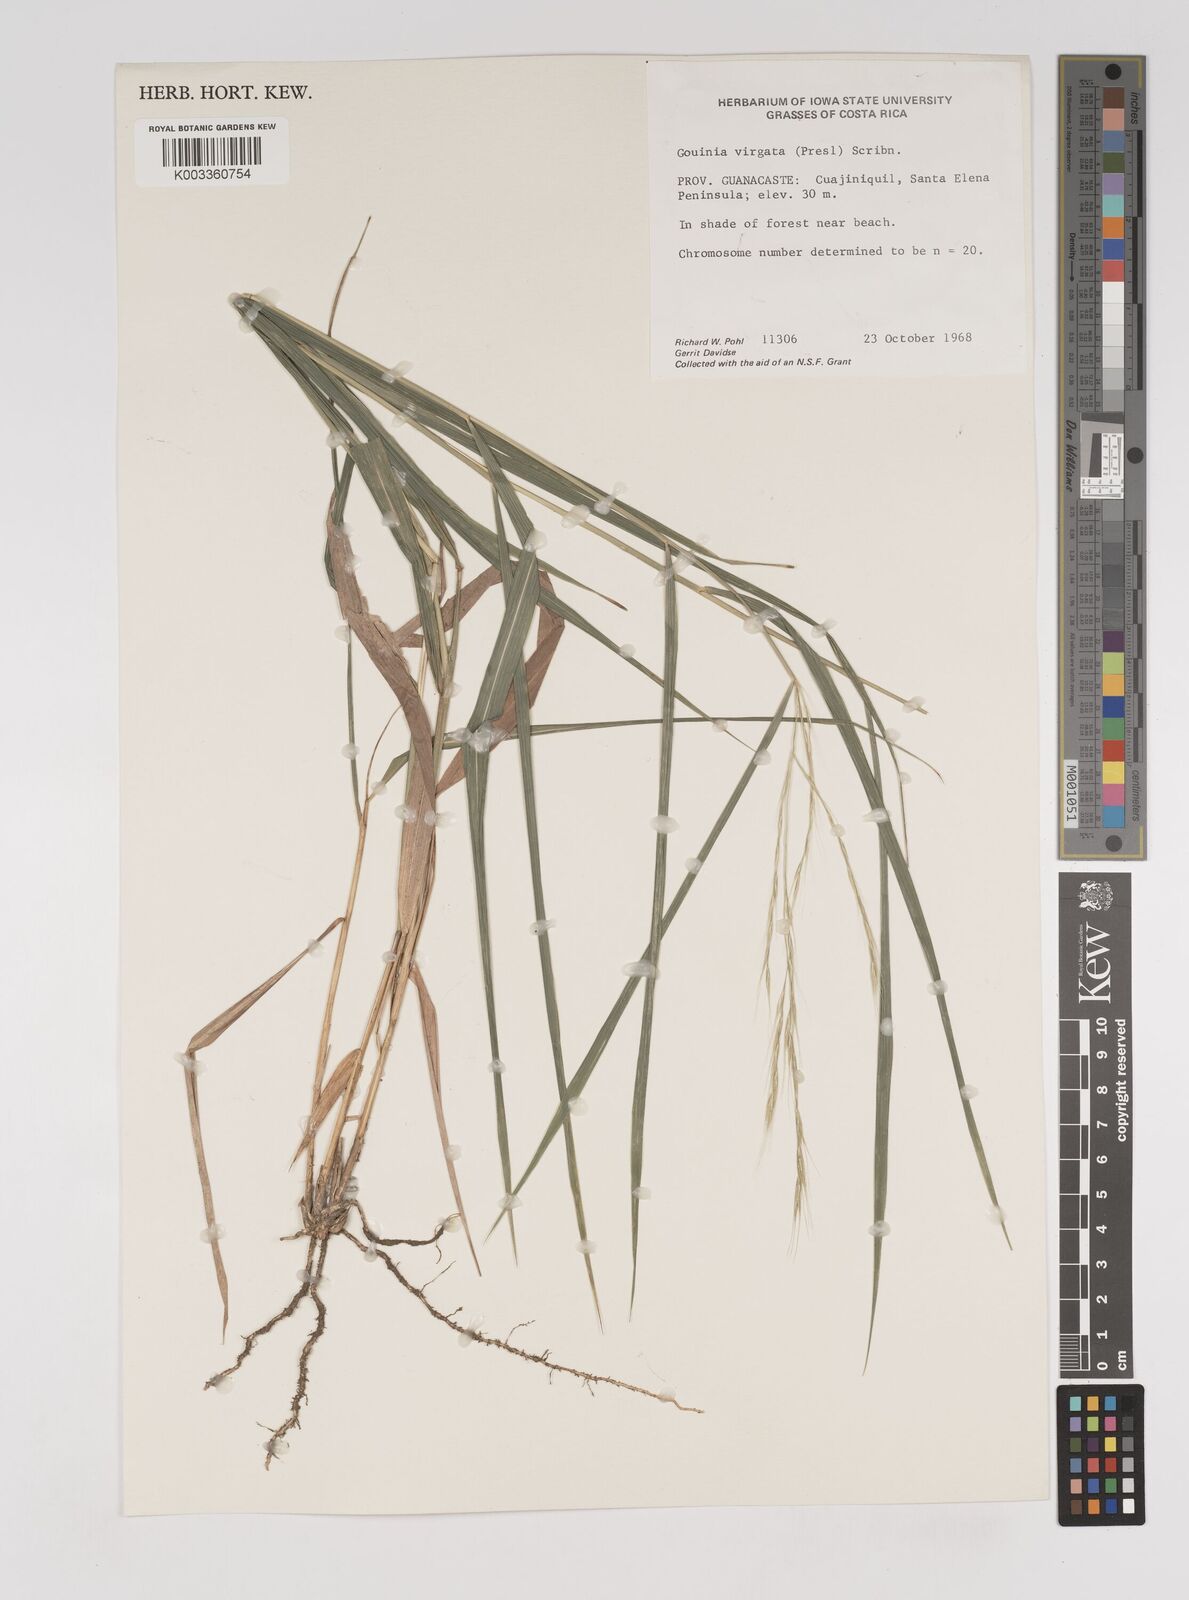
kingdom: Plantae
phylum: Tracheophyta
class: Liliopsida
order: Poales
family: Poaceae
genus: Gouinia
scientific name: Gouinia virgata
